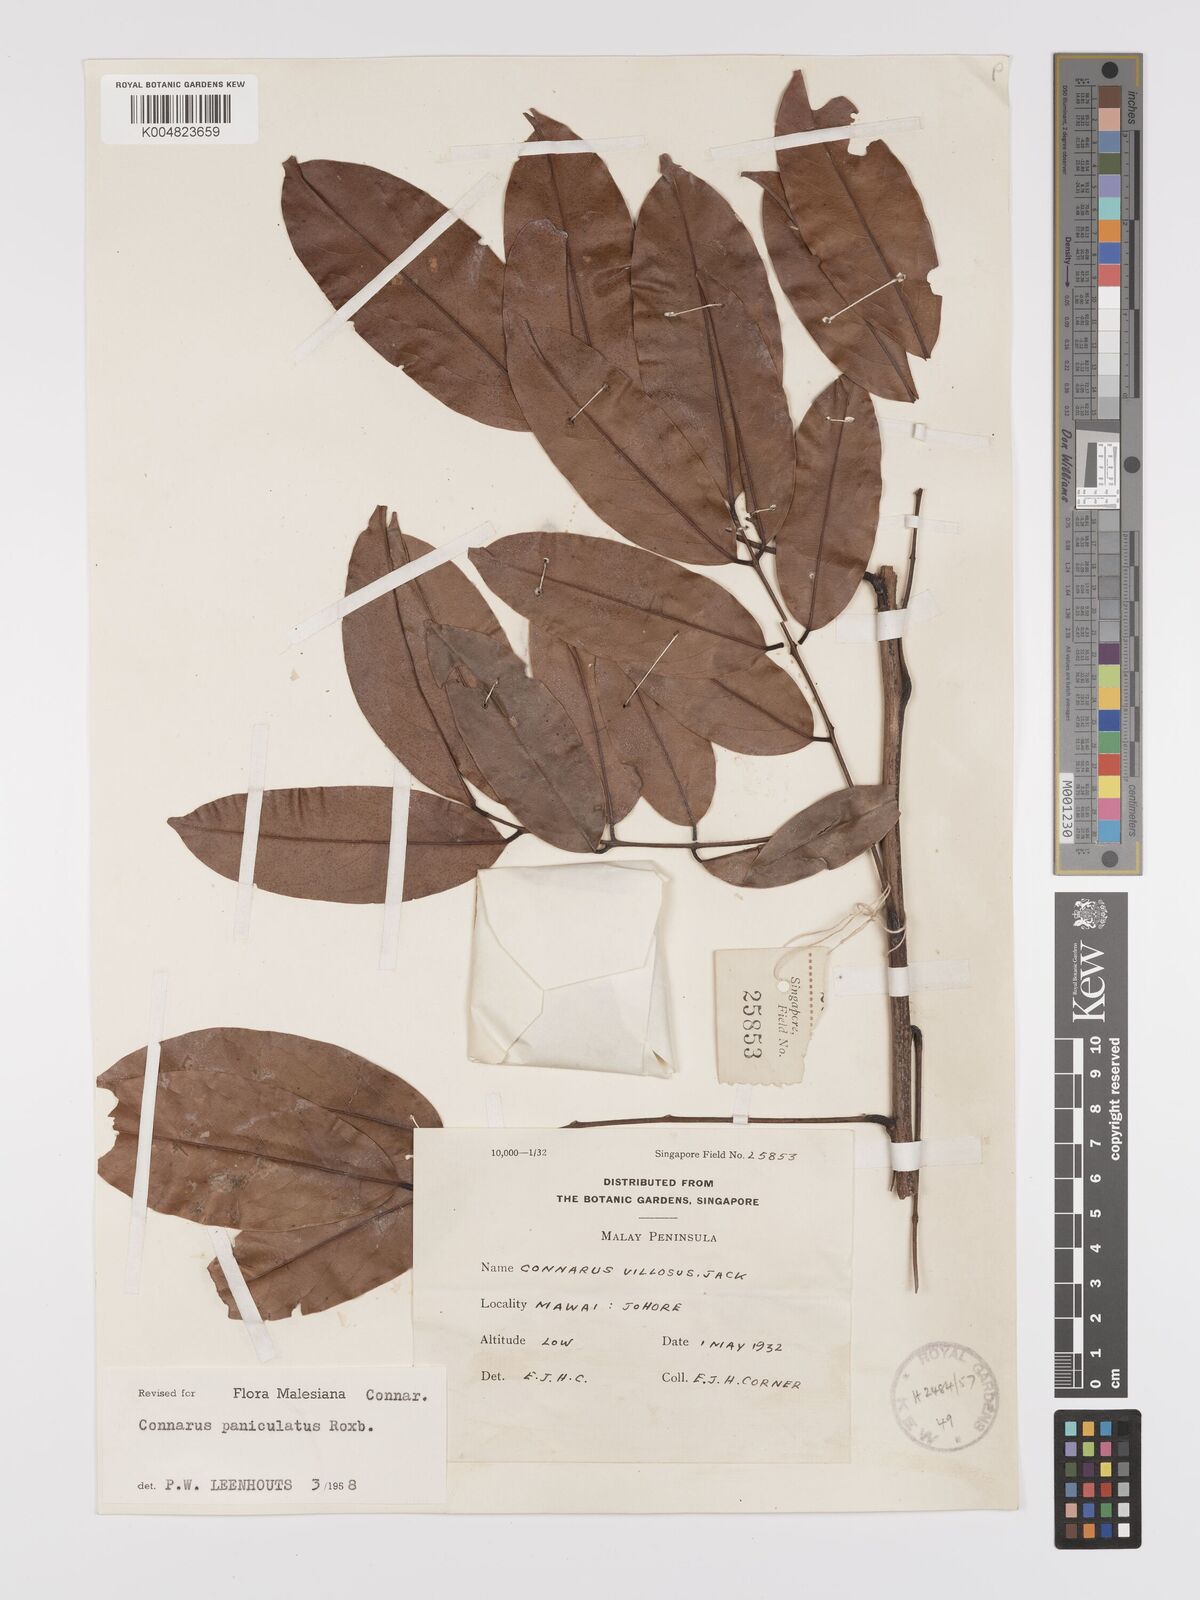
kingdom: Plantae
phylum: Tracheophyta
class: Magnoliopsida
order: Oxalidales
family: Connaraceae
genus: Connarus
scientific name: Connarus paniculatus
